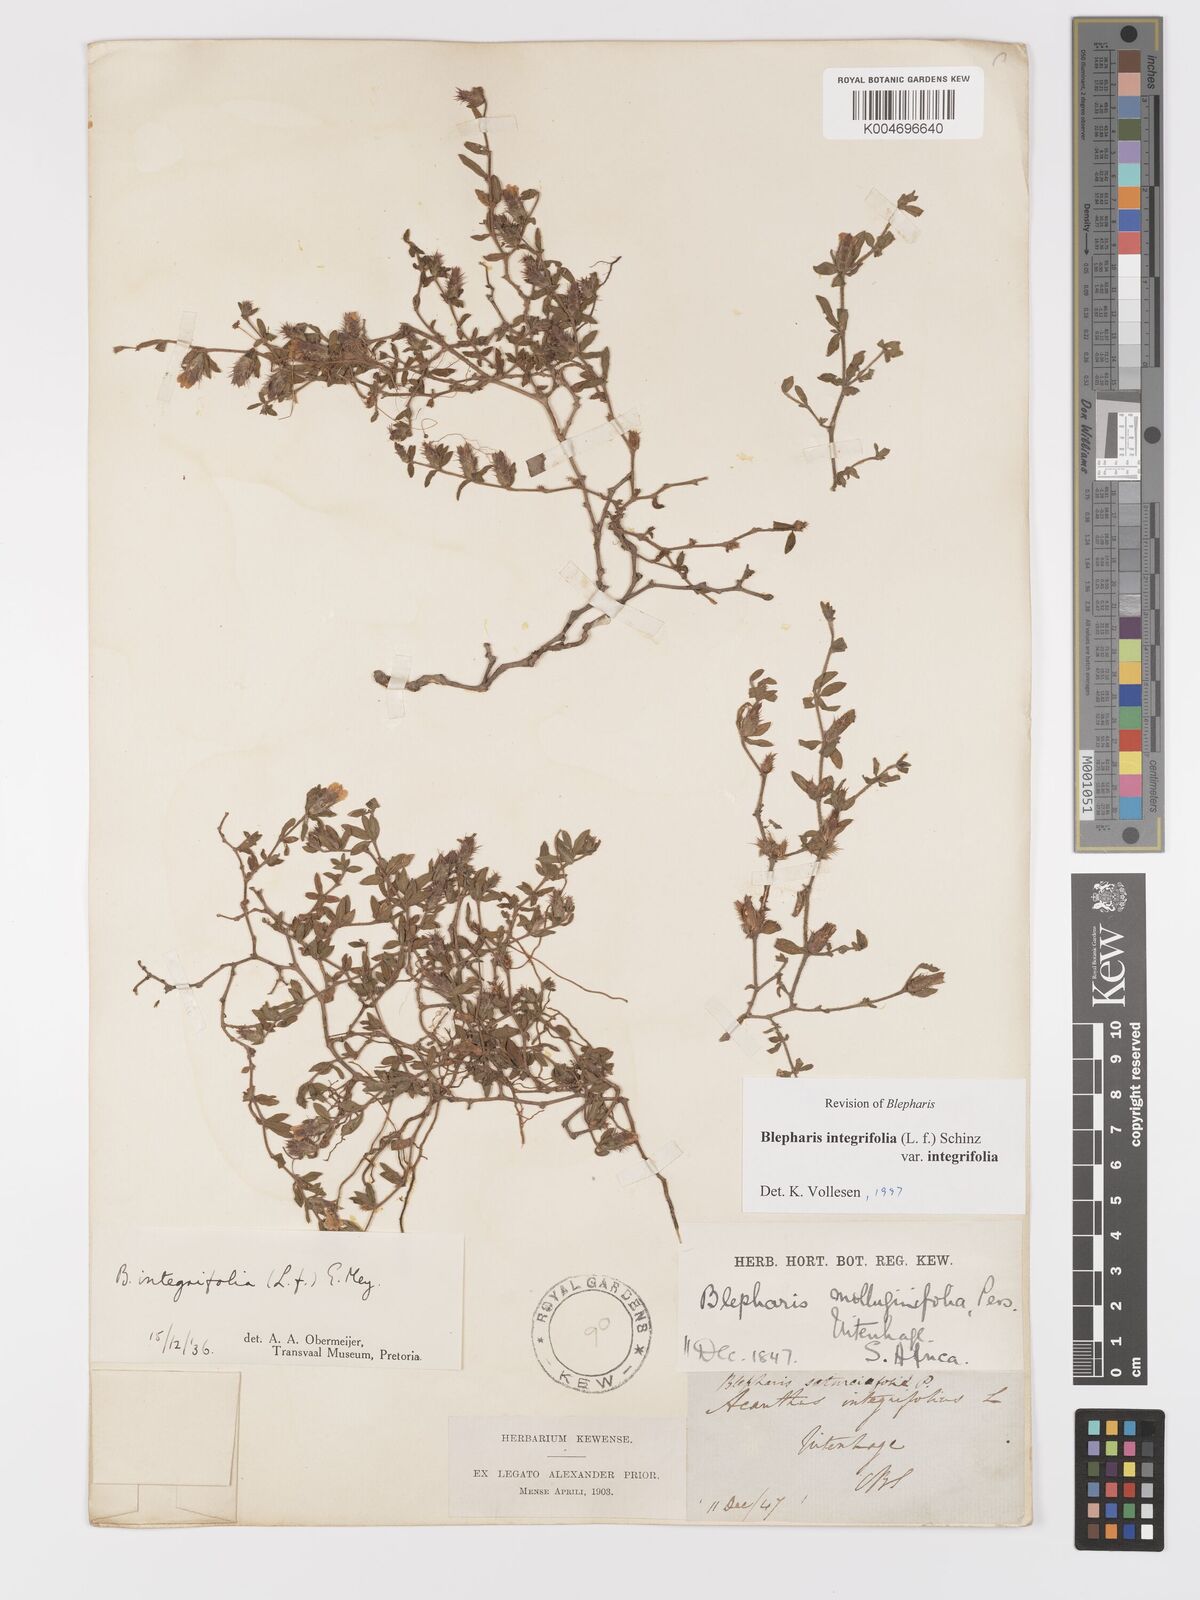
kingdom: Plantae
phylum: Tracheophyta
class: Magnoliopsida
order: Lamiales
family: Acanthaceae
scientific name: Acanthaceae
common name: Acanthaceae
